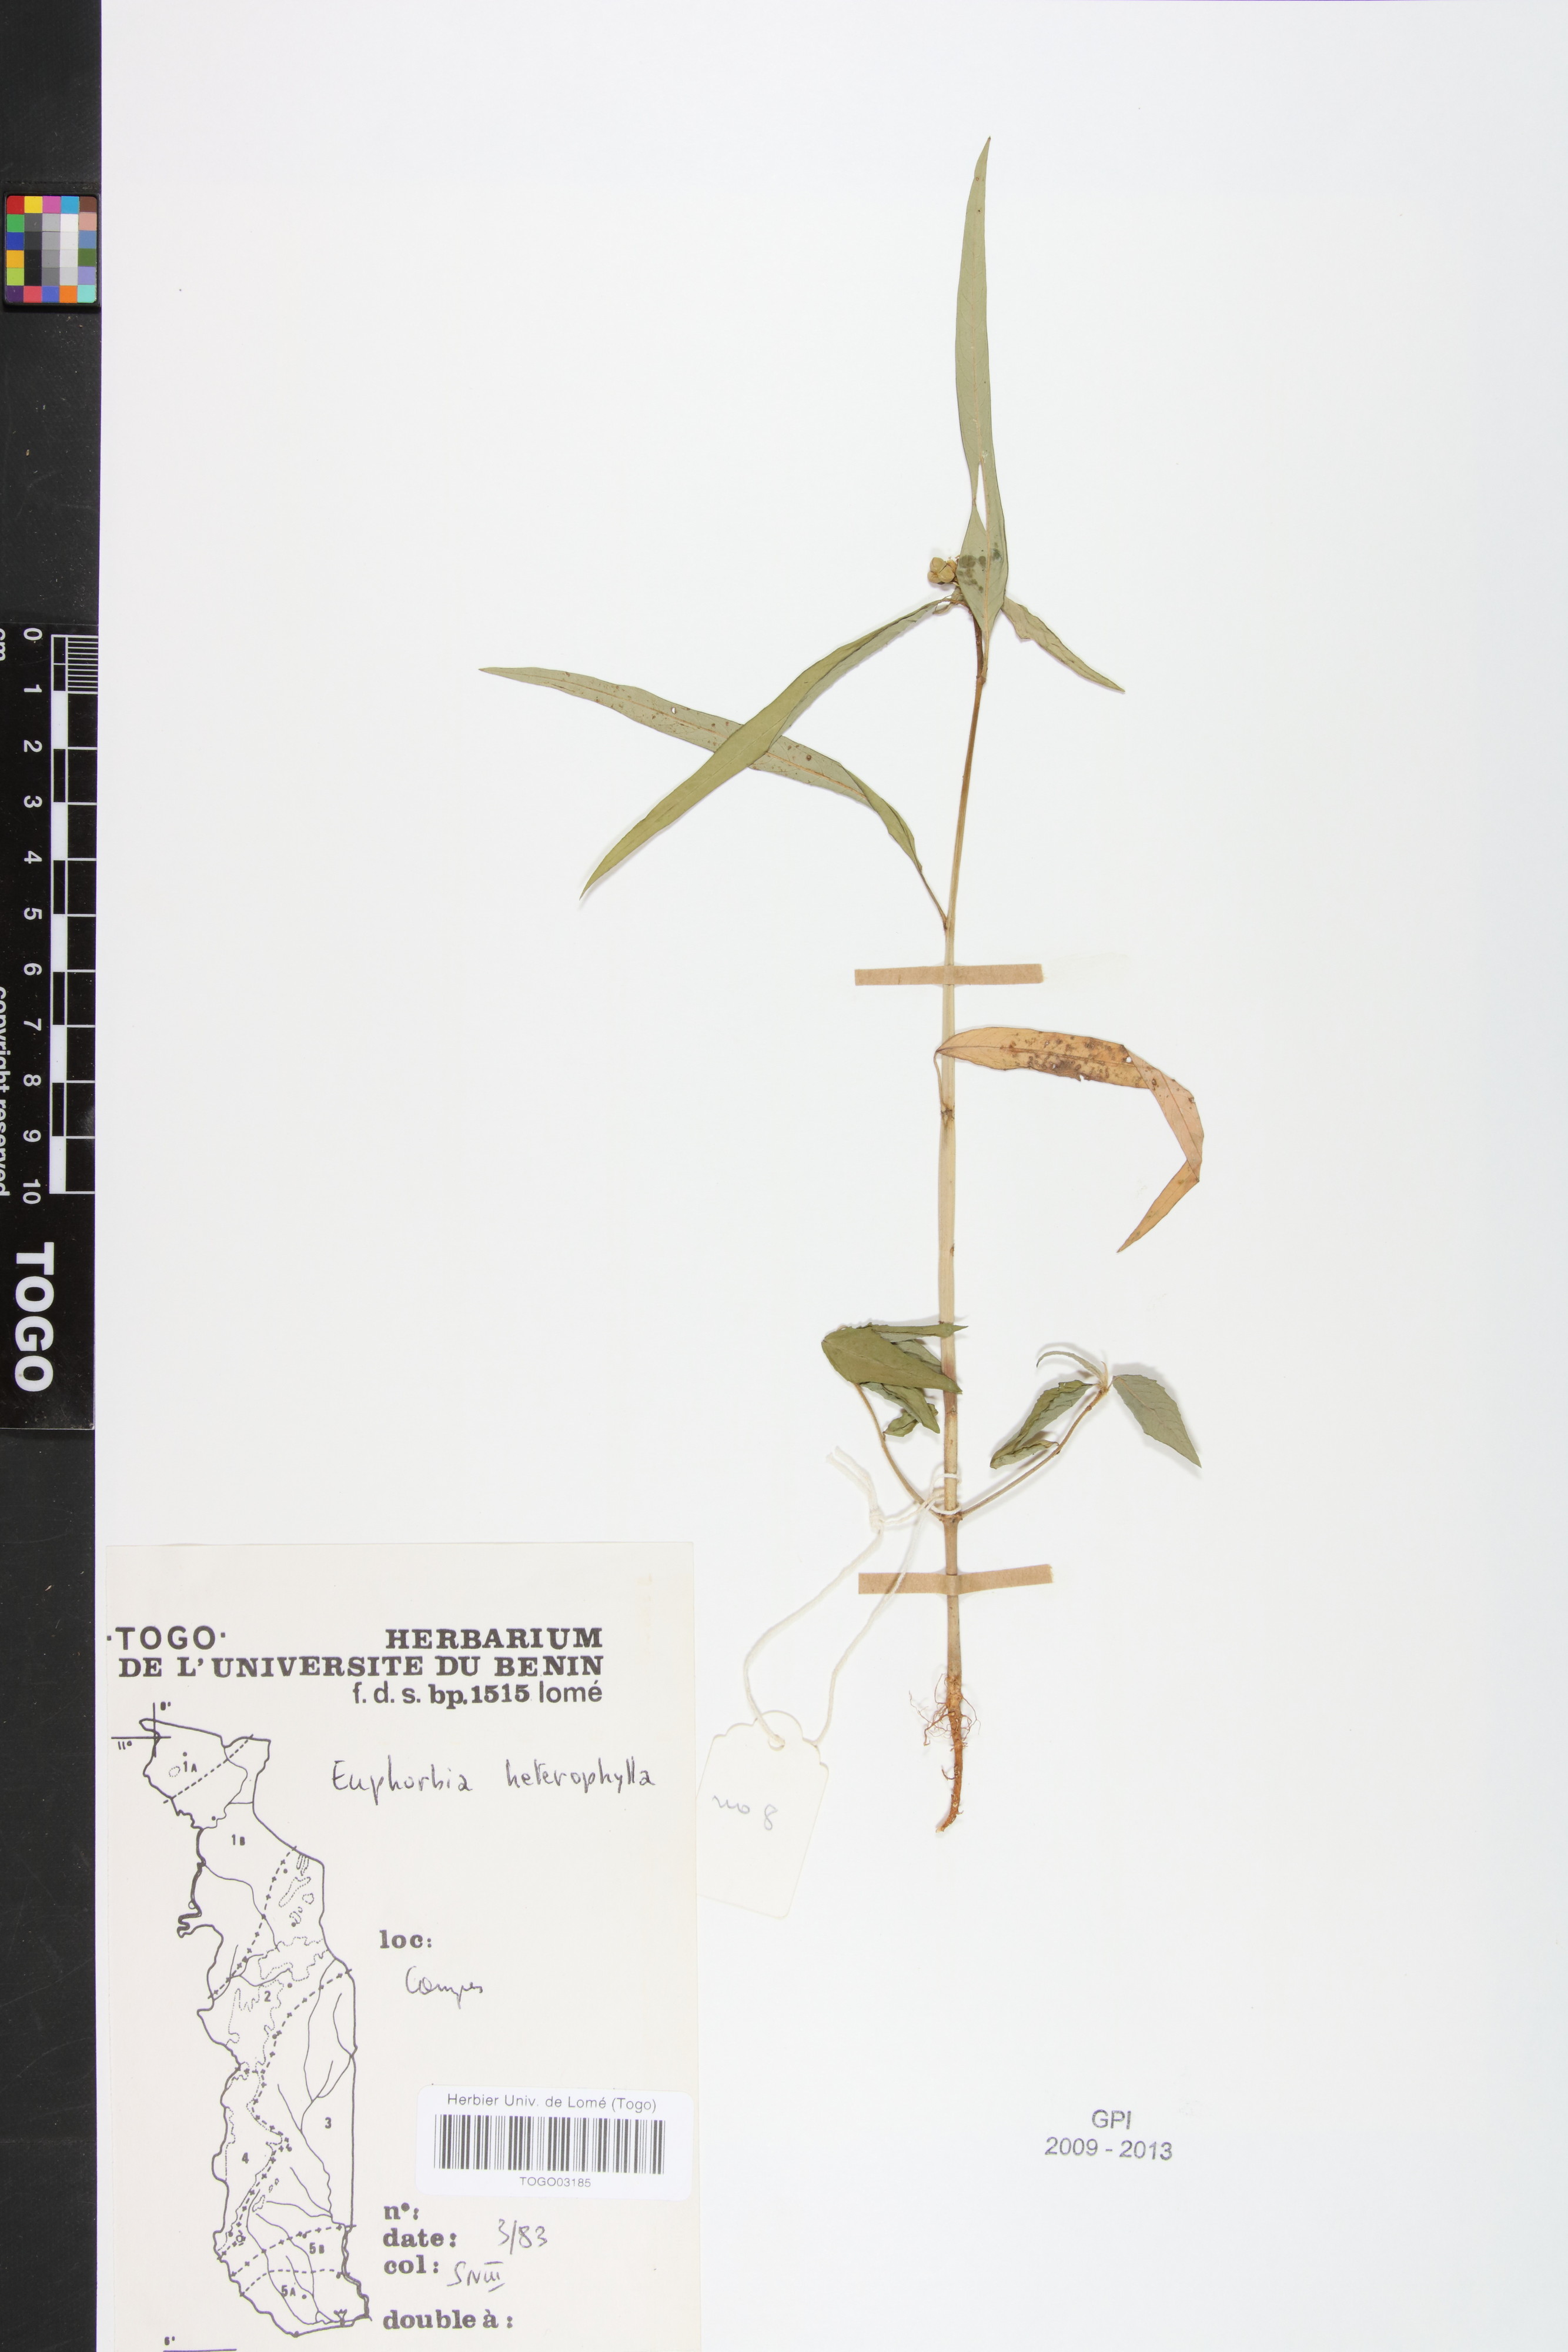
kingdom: Plantae
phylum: Tracheophyta
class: Magnoliopsida
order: Malpighiales
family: Euphorbiaceae
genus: Euphorbia
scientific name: Euphorbia heterophylla
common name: Mexican fireplant
